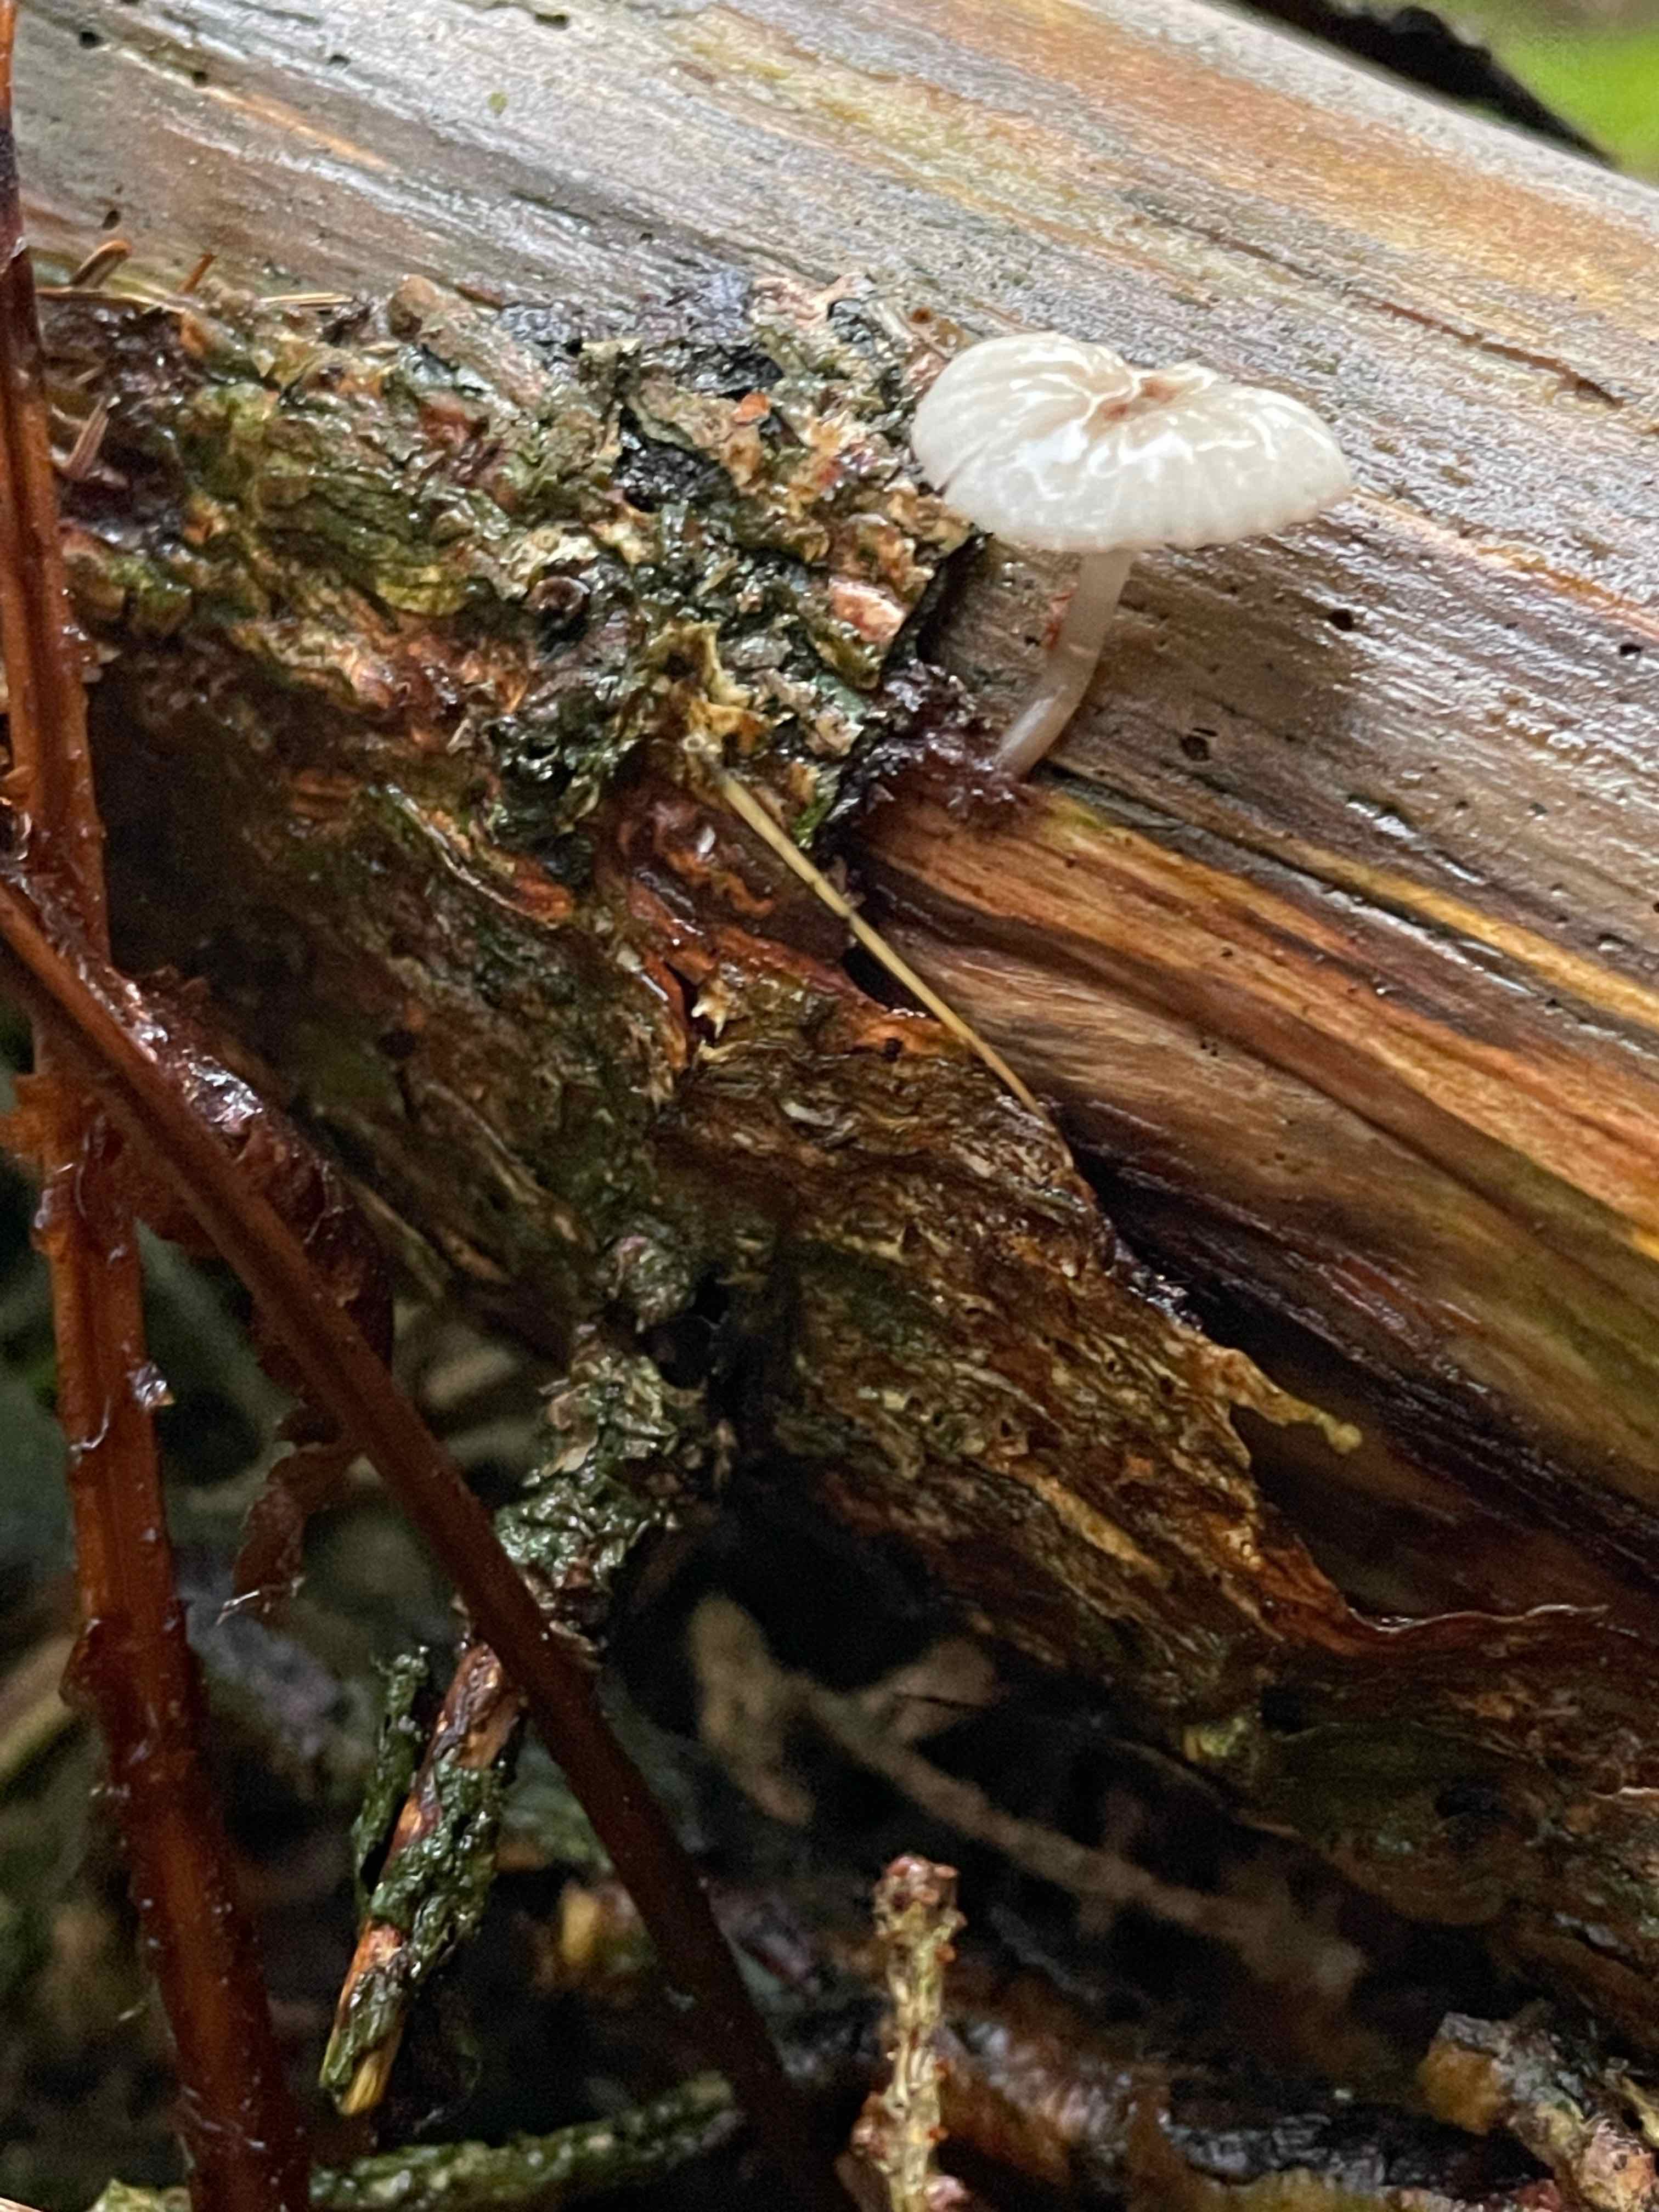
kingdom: Fungi
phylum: Basidiomycota
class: Agaricomycetes
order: Agaricales
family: Mycenaceae
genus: Mycena
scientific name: Mycena galopus
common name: hvidmælket huesvamp
